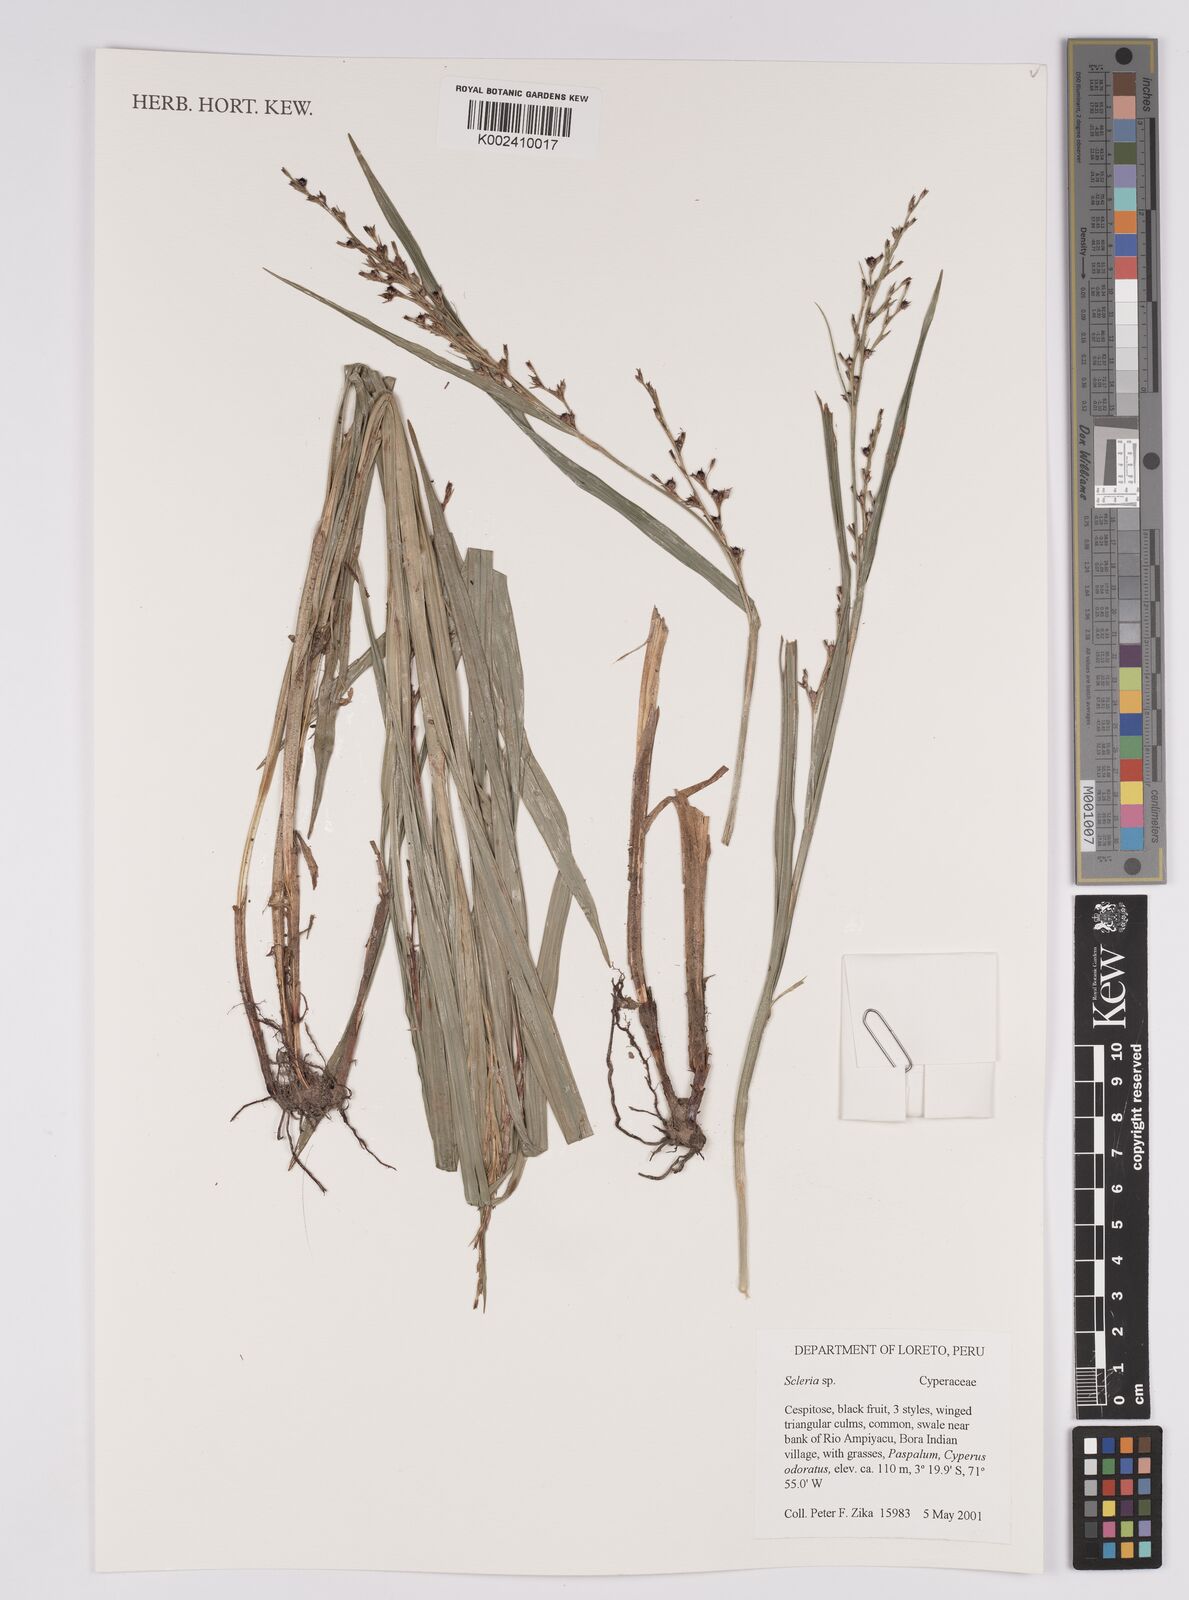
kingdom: Plantae
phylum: Tracheophyta
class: Liliopsida
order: Poales
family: Cyperaceae
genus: Scleria
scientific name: Scleria
